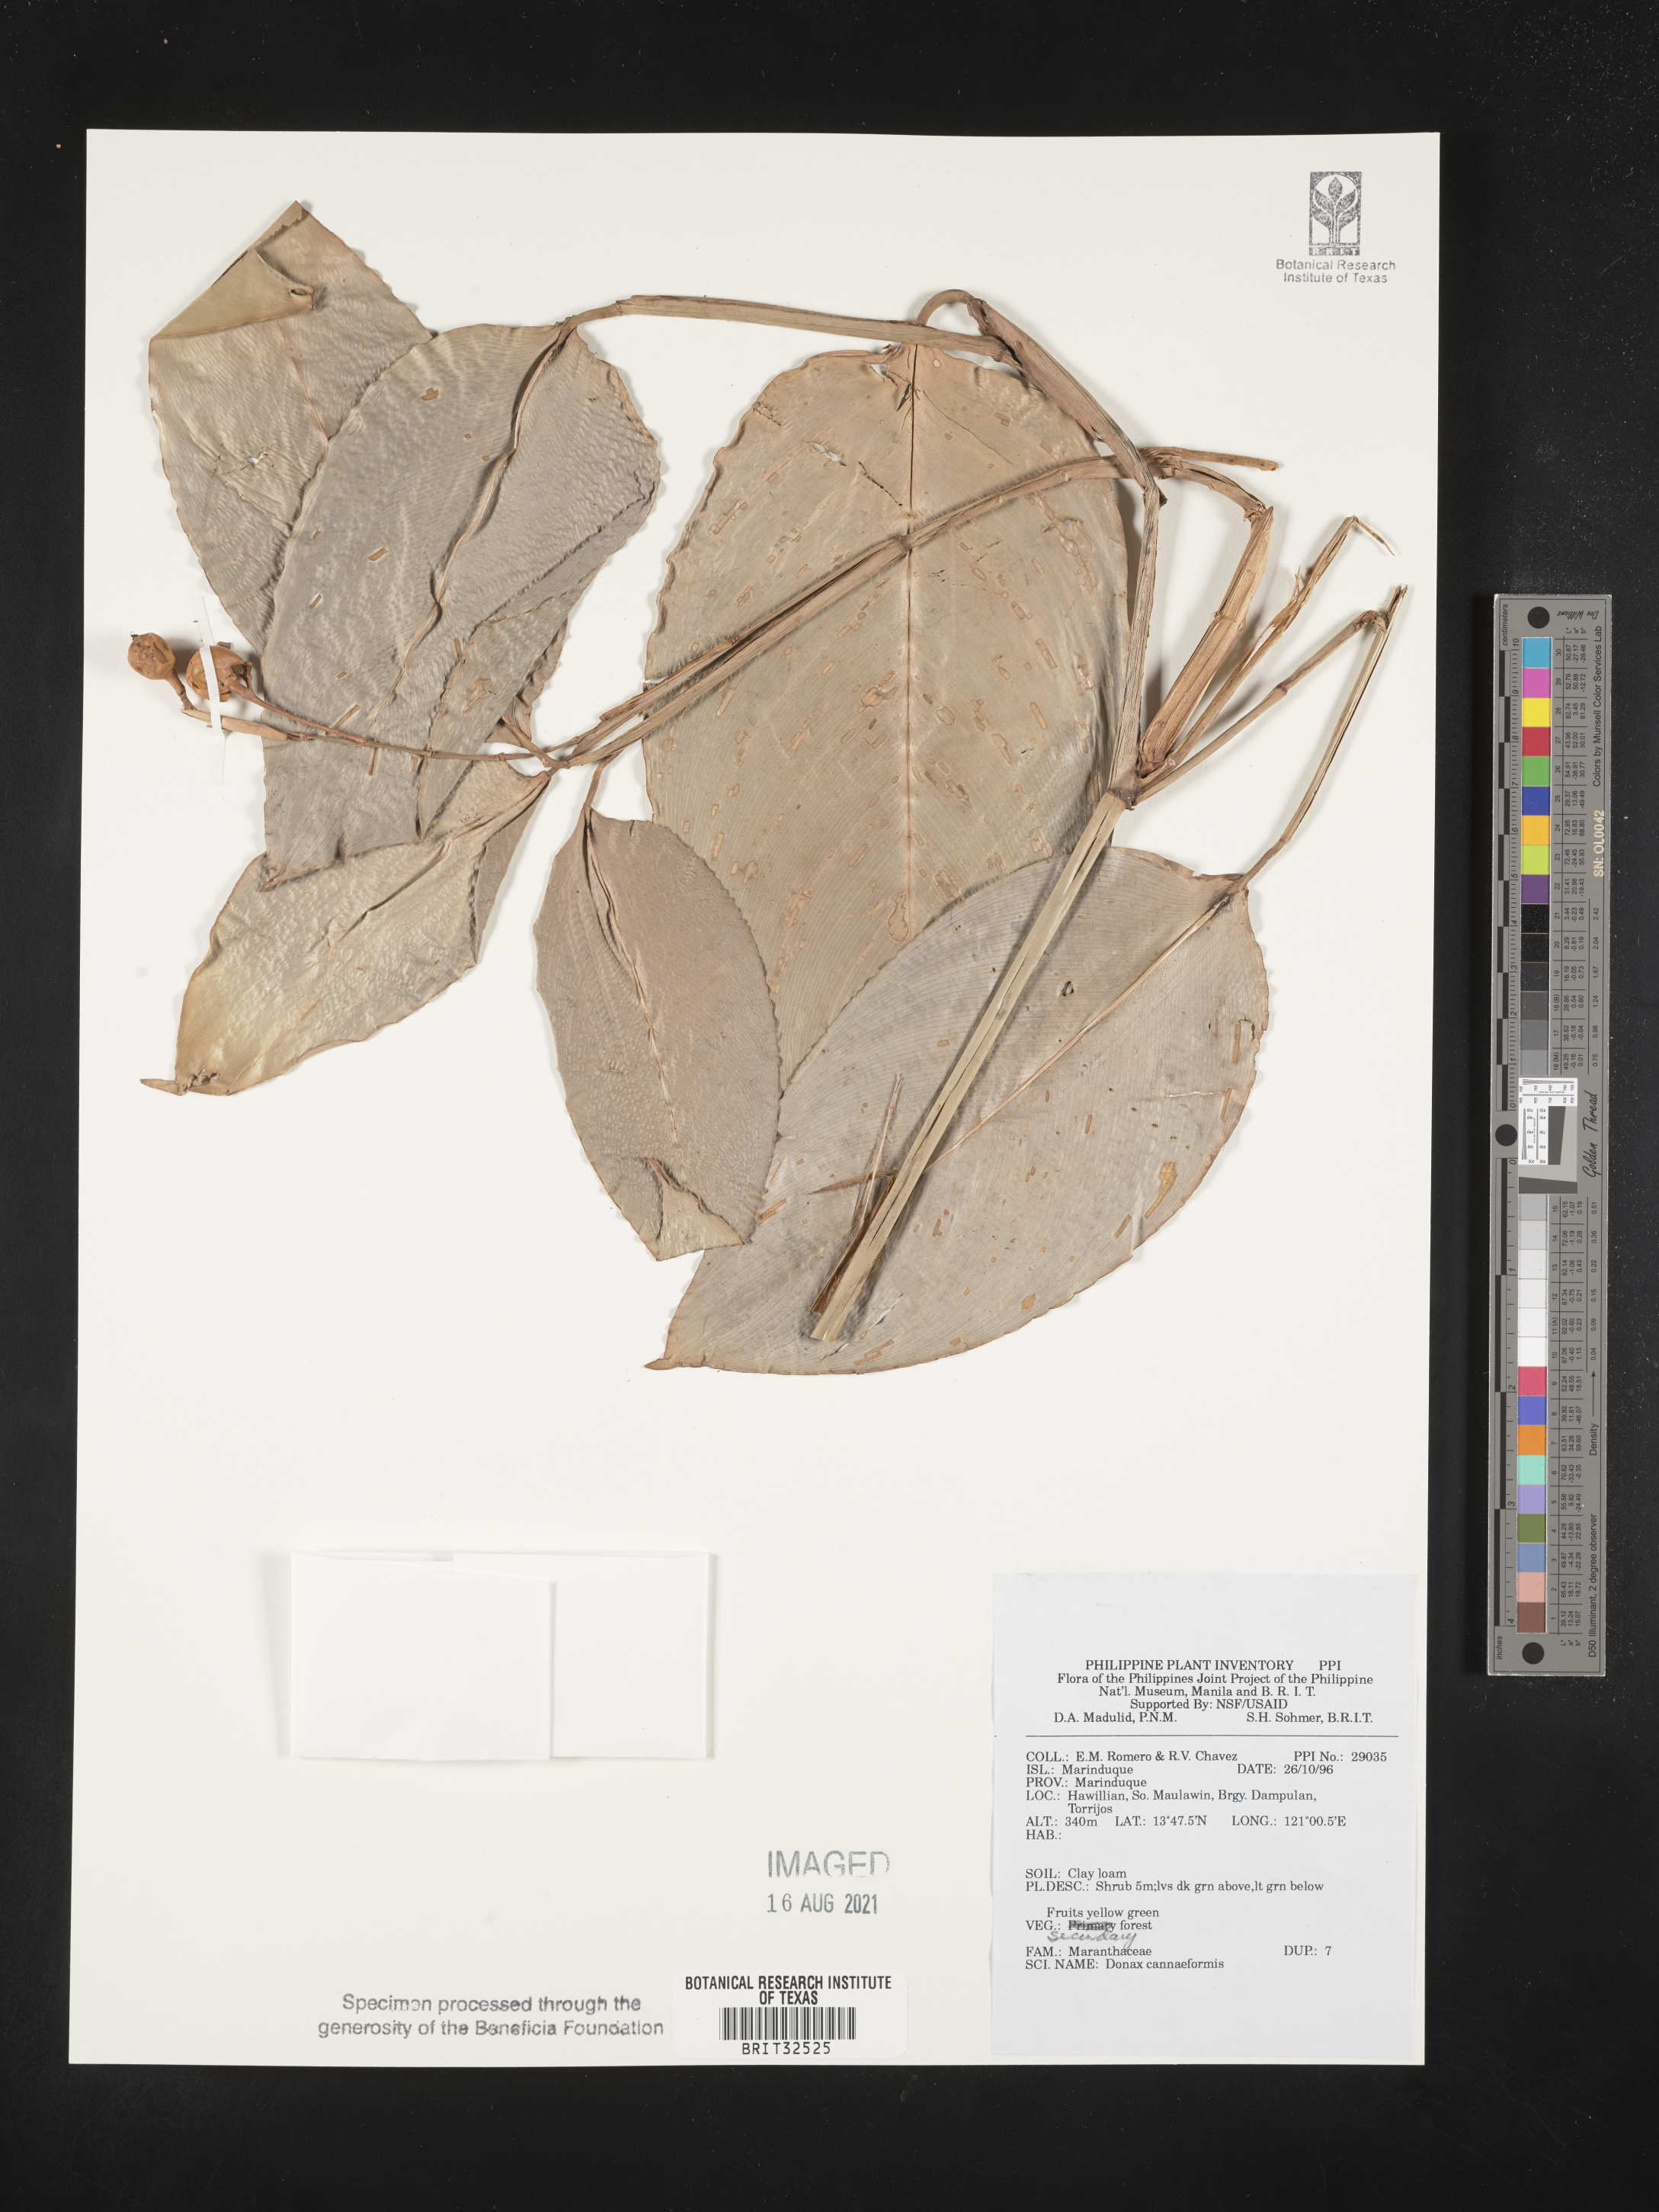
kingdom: Plantae
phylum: Tracheophyta
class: Liliopsida
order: Zingiberales
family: Marantaceae
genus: Donax
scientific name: Donax canniformis
